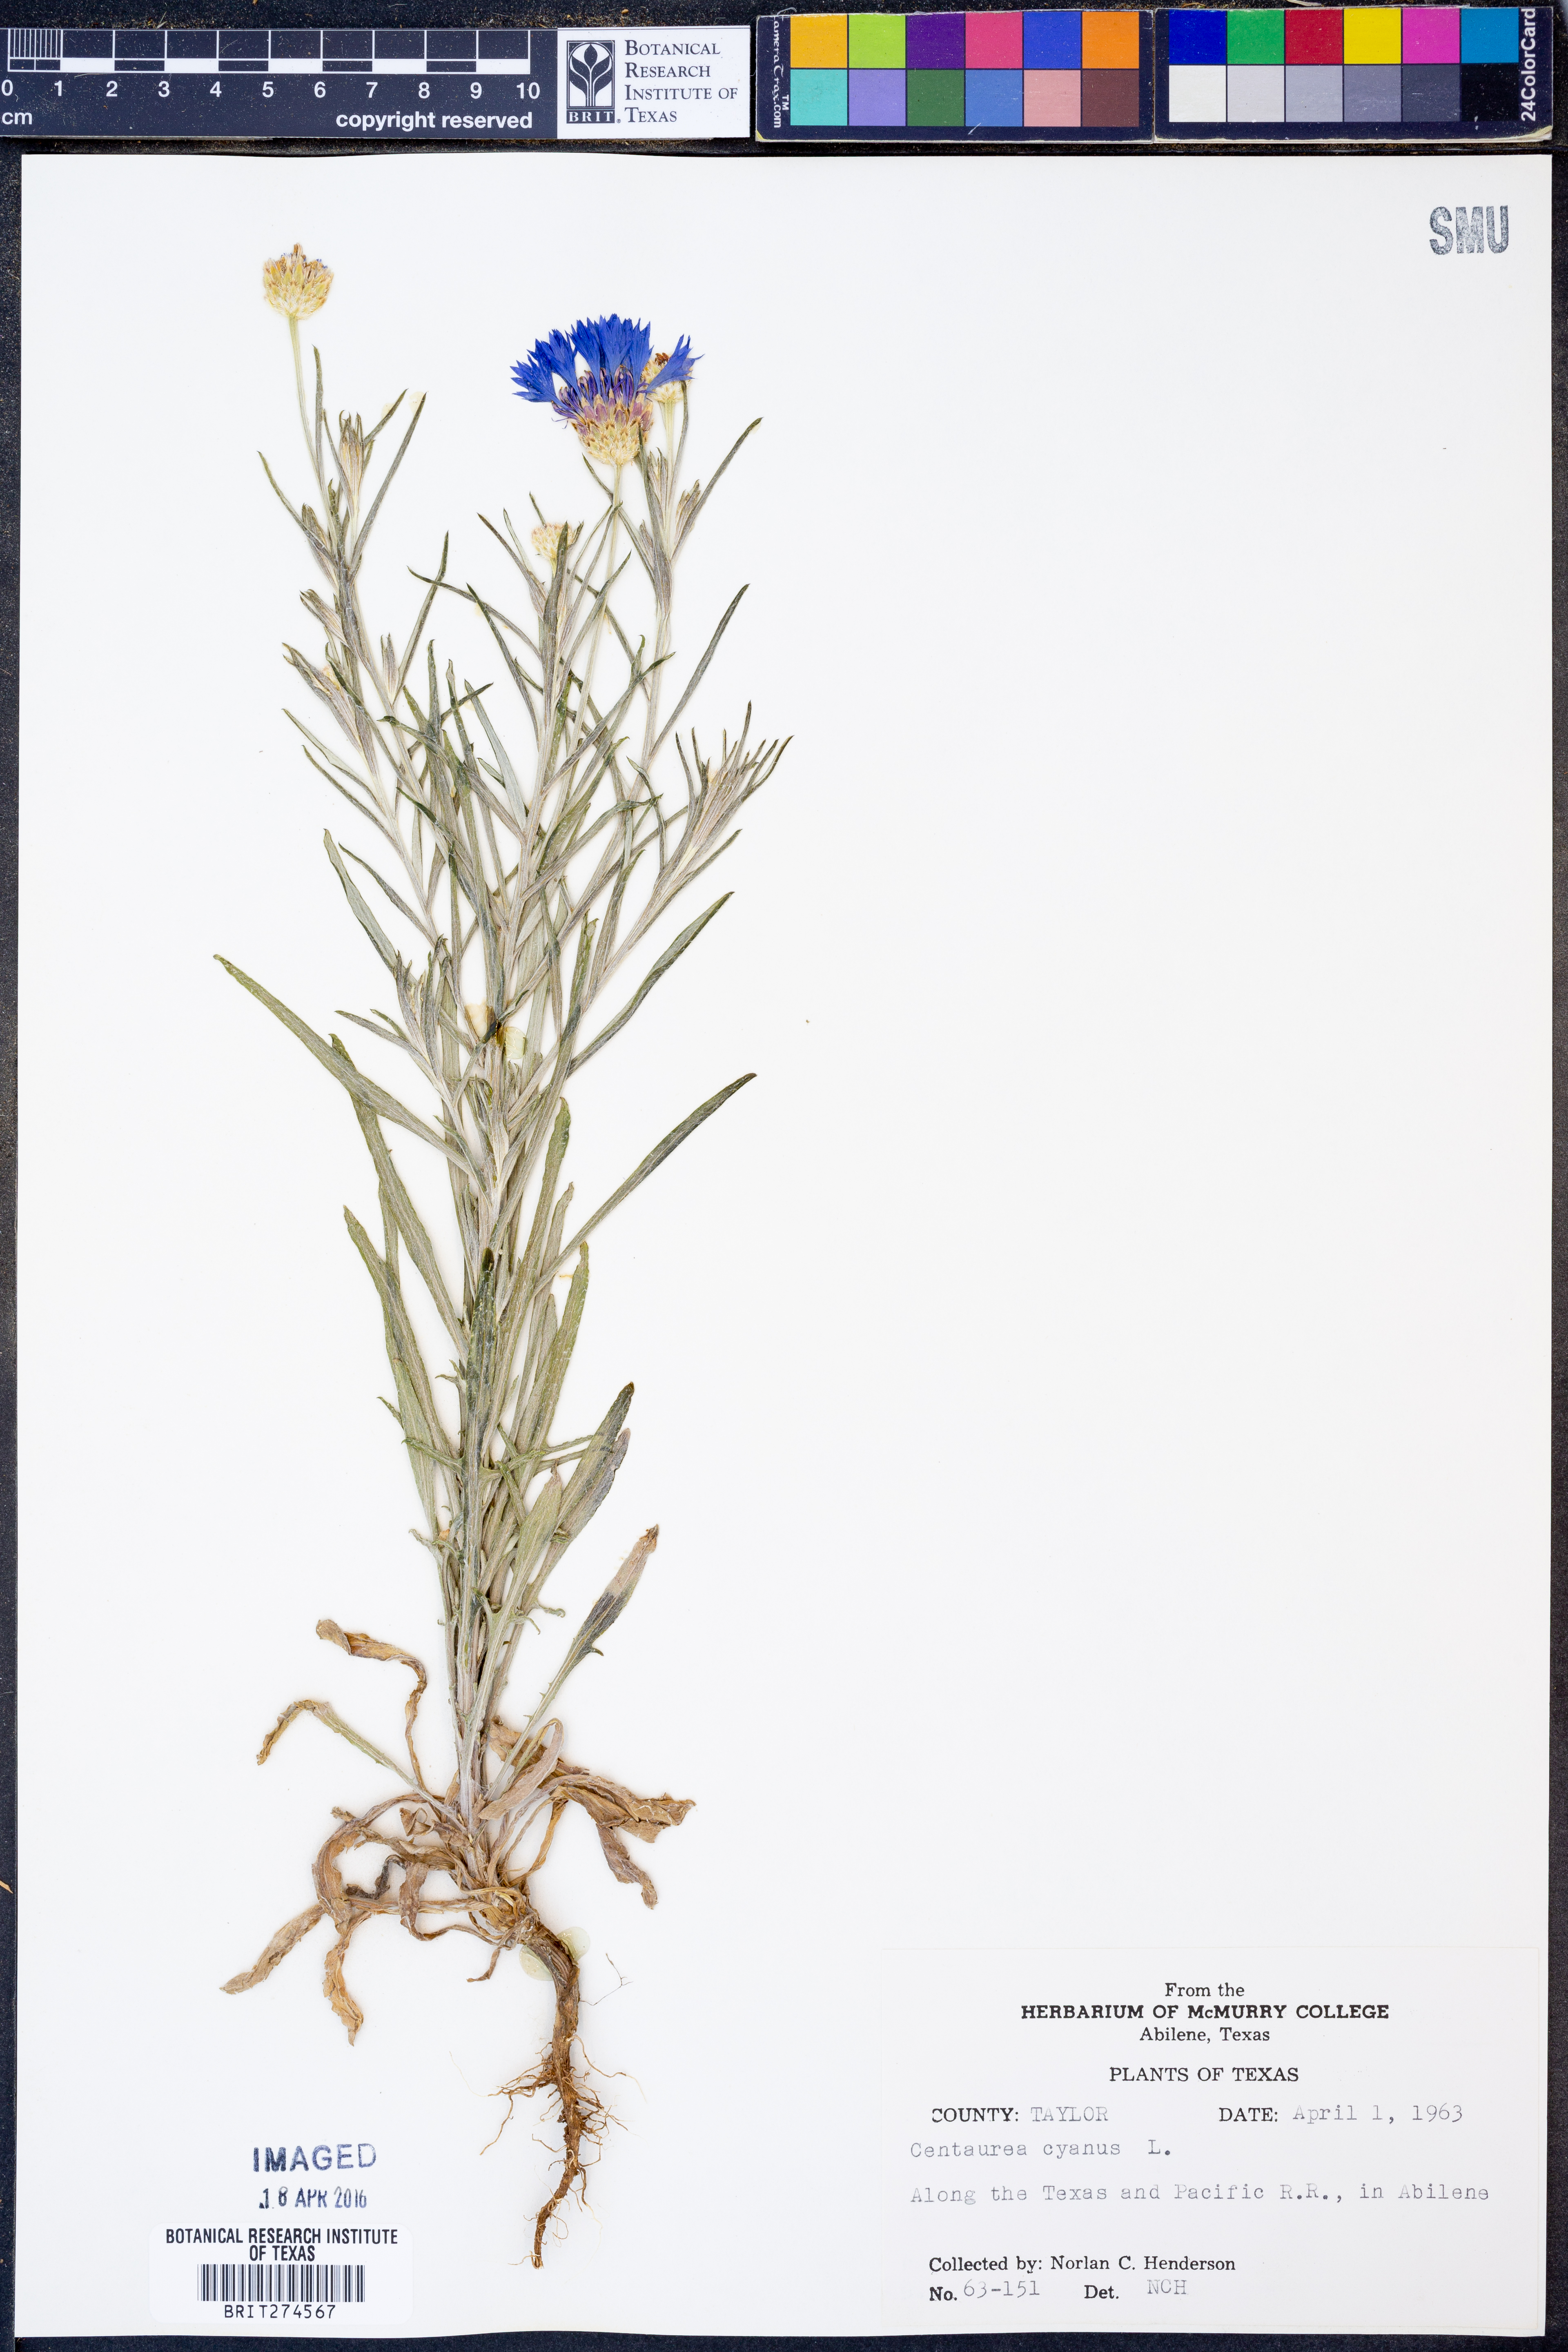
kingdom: Plantae
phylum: Tracheophyta
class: Magnoliopsida
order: Asterales
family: Asteraceae
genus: Centaurea
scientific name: Centaurea cyanus
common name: Cornflower
